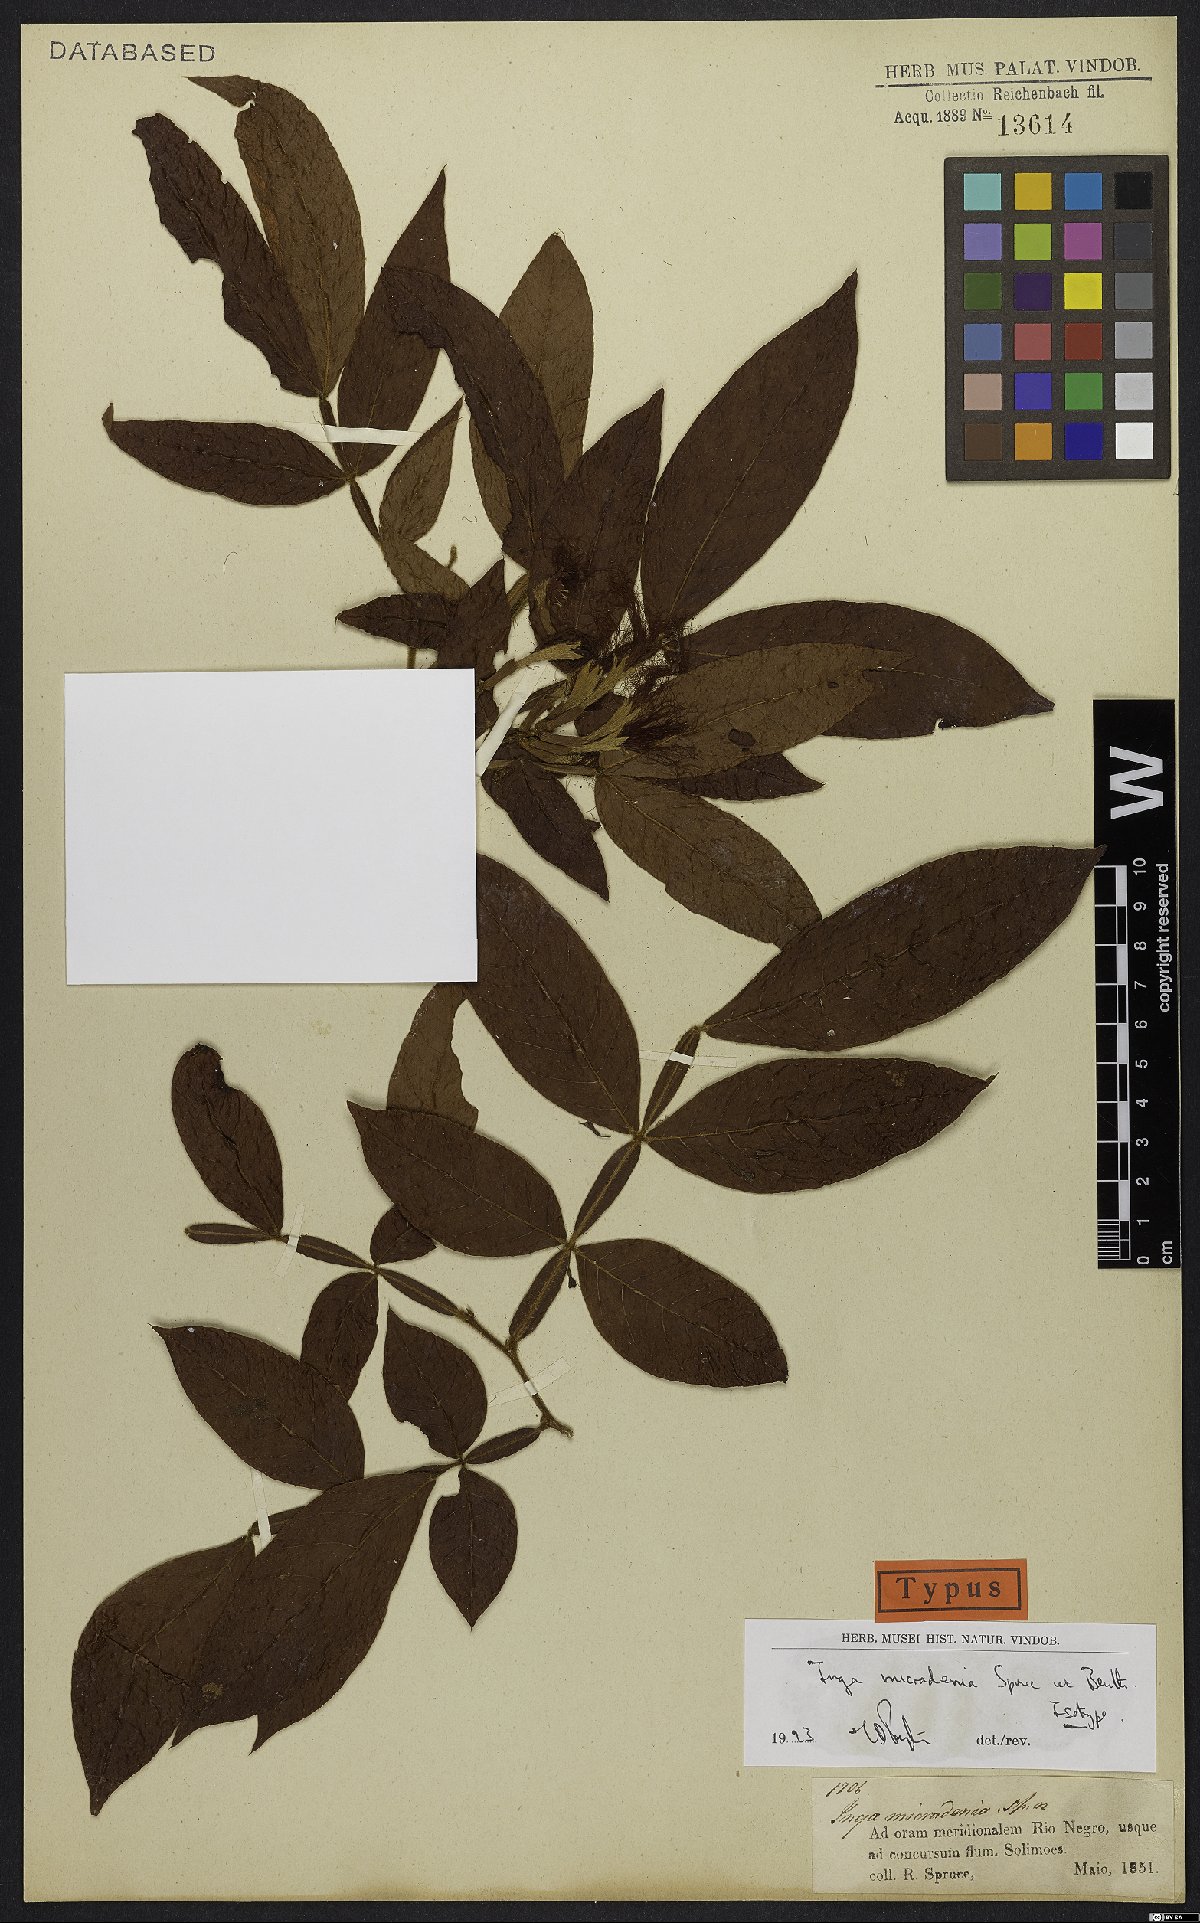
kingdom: Plantae
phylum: Tracheophyta
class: Magnoliopsida
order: Fabales
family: Fabaceae
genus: Inga
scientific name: Inga micradenia
